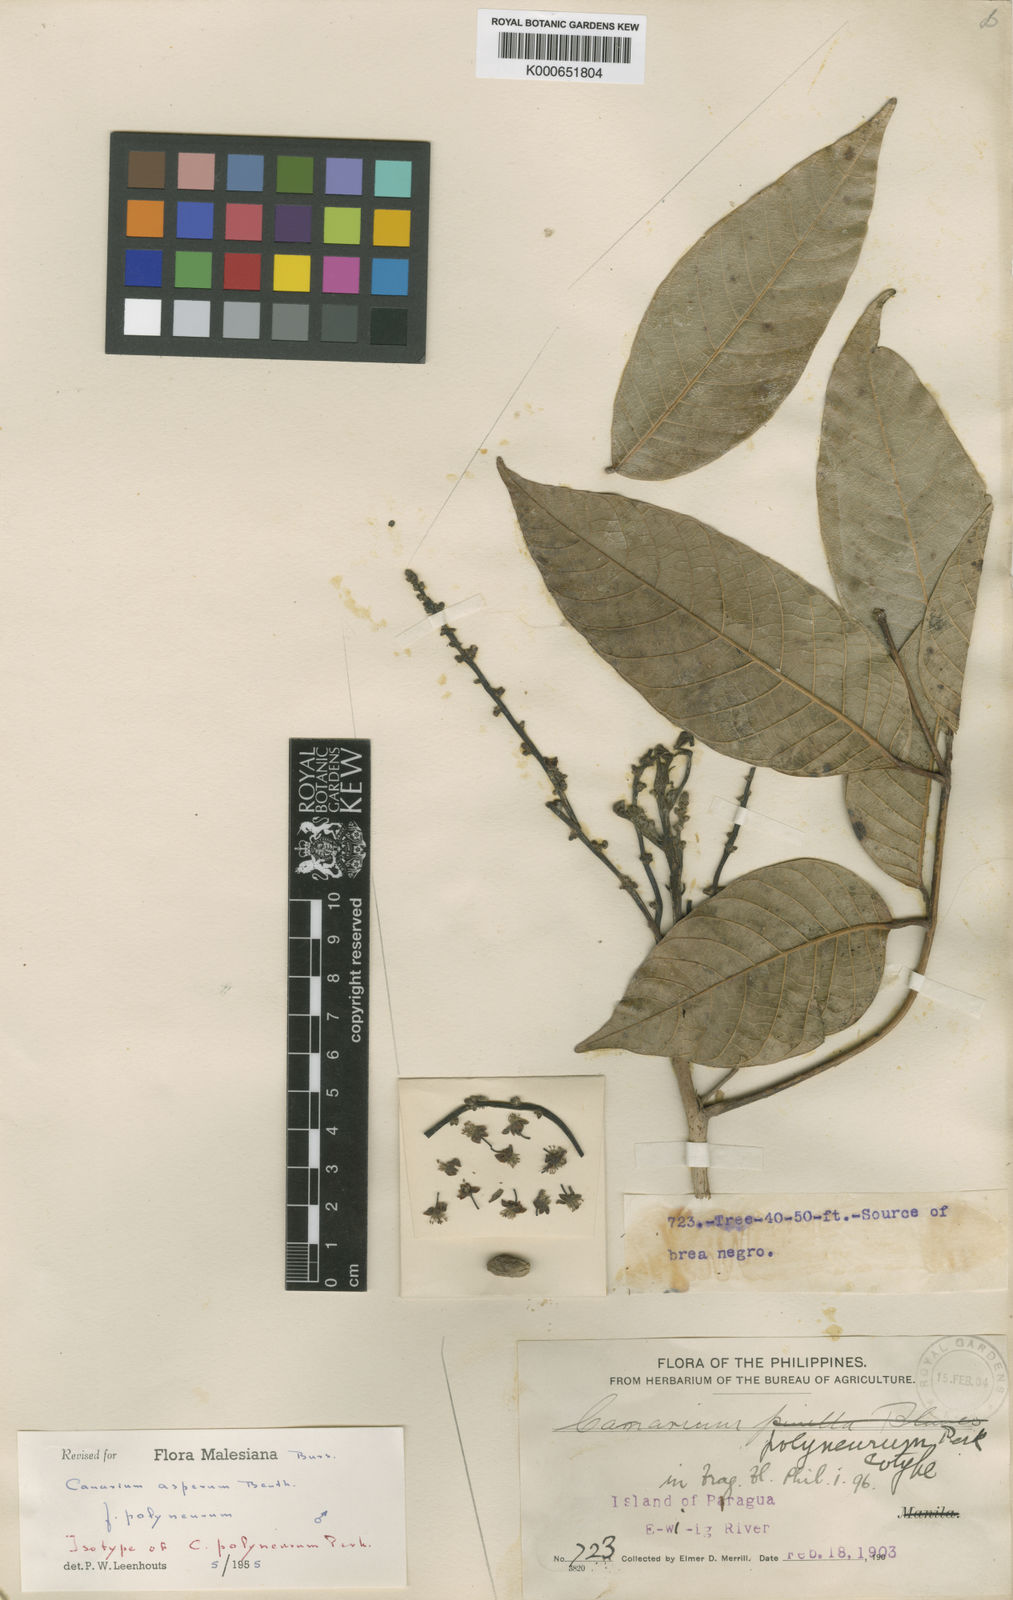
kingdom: Plantae
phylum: Tracheophyta
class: Magnoliopsida
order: Sapindales
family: Burseraceae
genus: Canarium
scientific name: Canarium asperum
